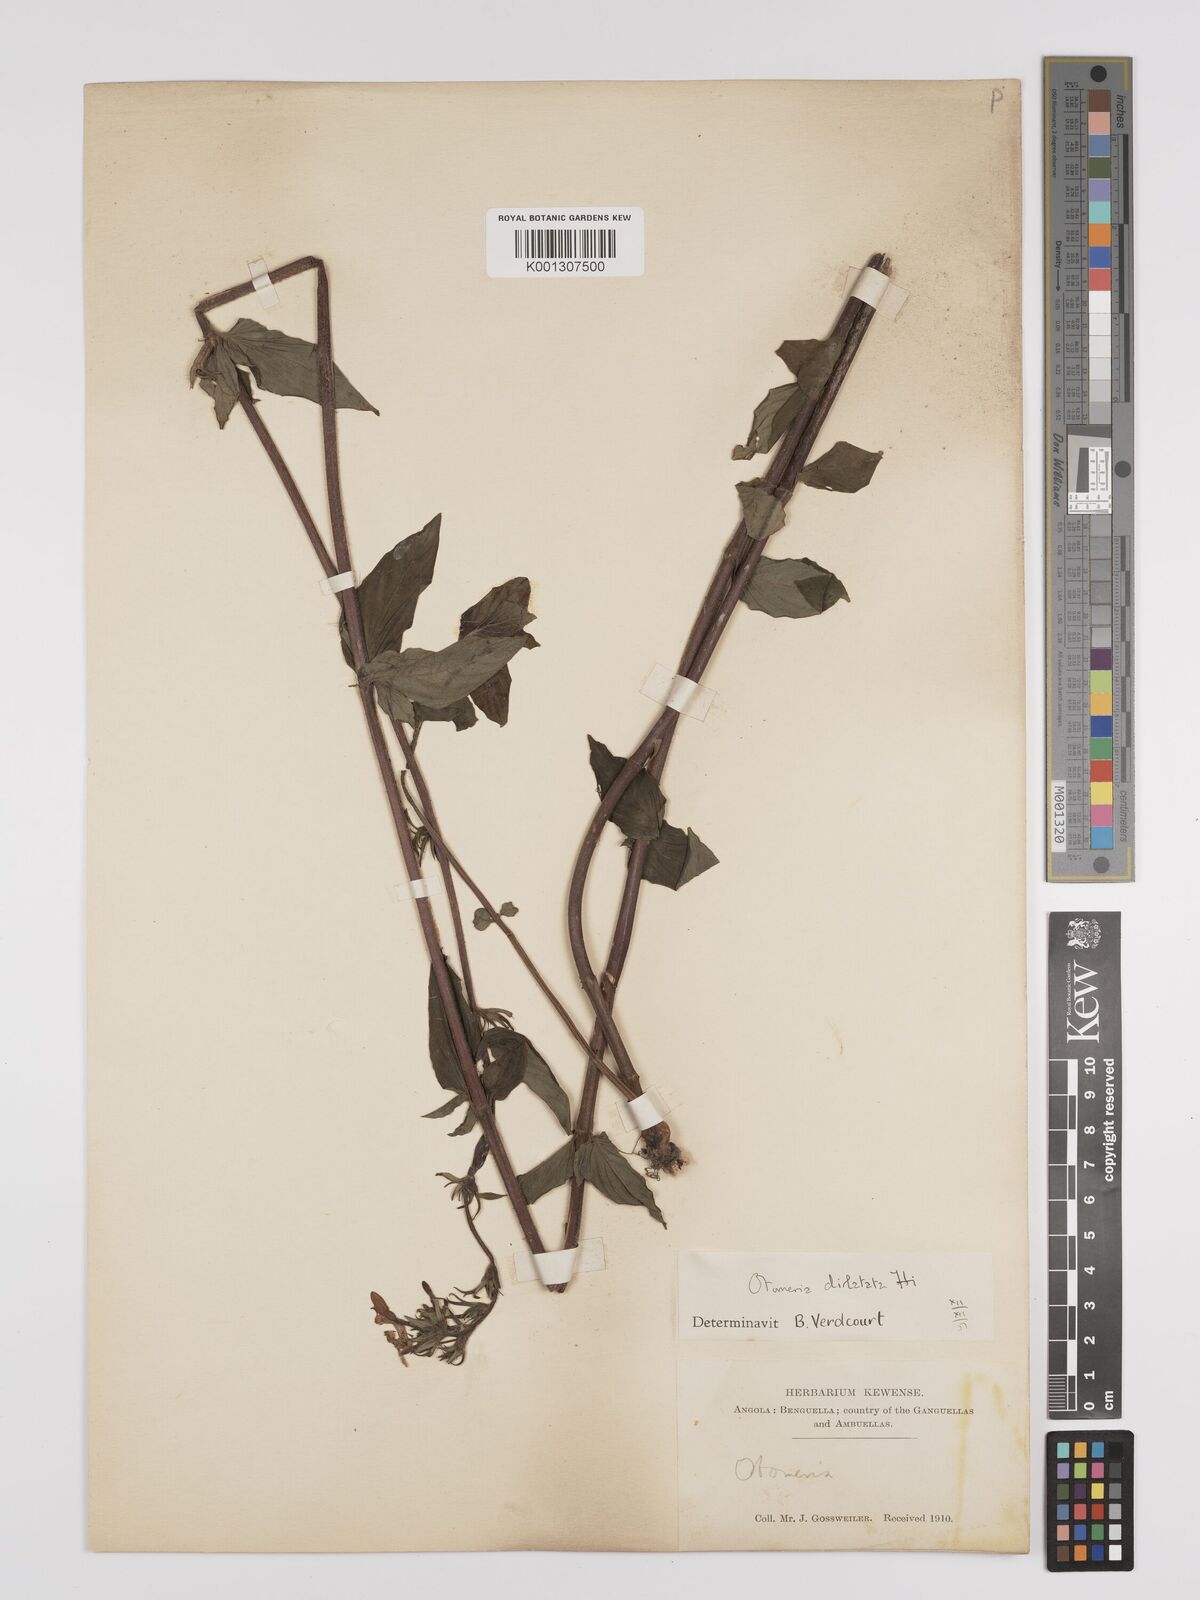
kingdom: Plantae
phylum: Tracheophyta
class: Magnoliopsida
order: Gentianales
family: Rubiaceae
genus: Otomeria
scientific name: Otomeria elatior
